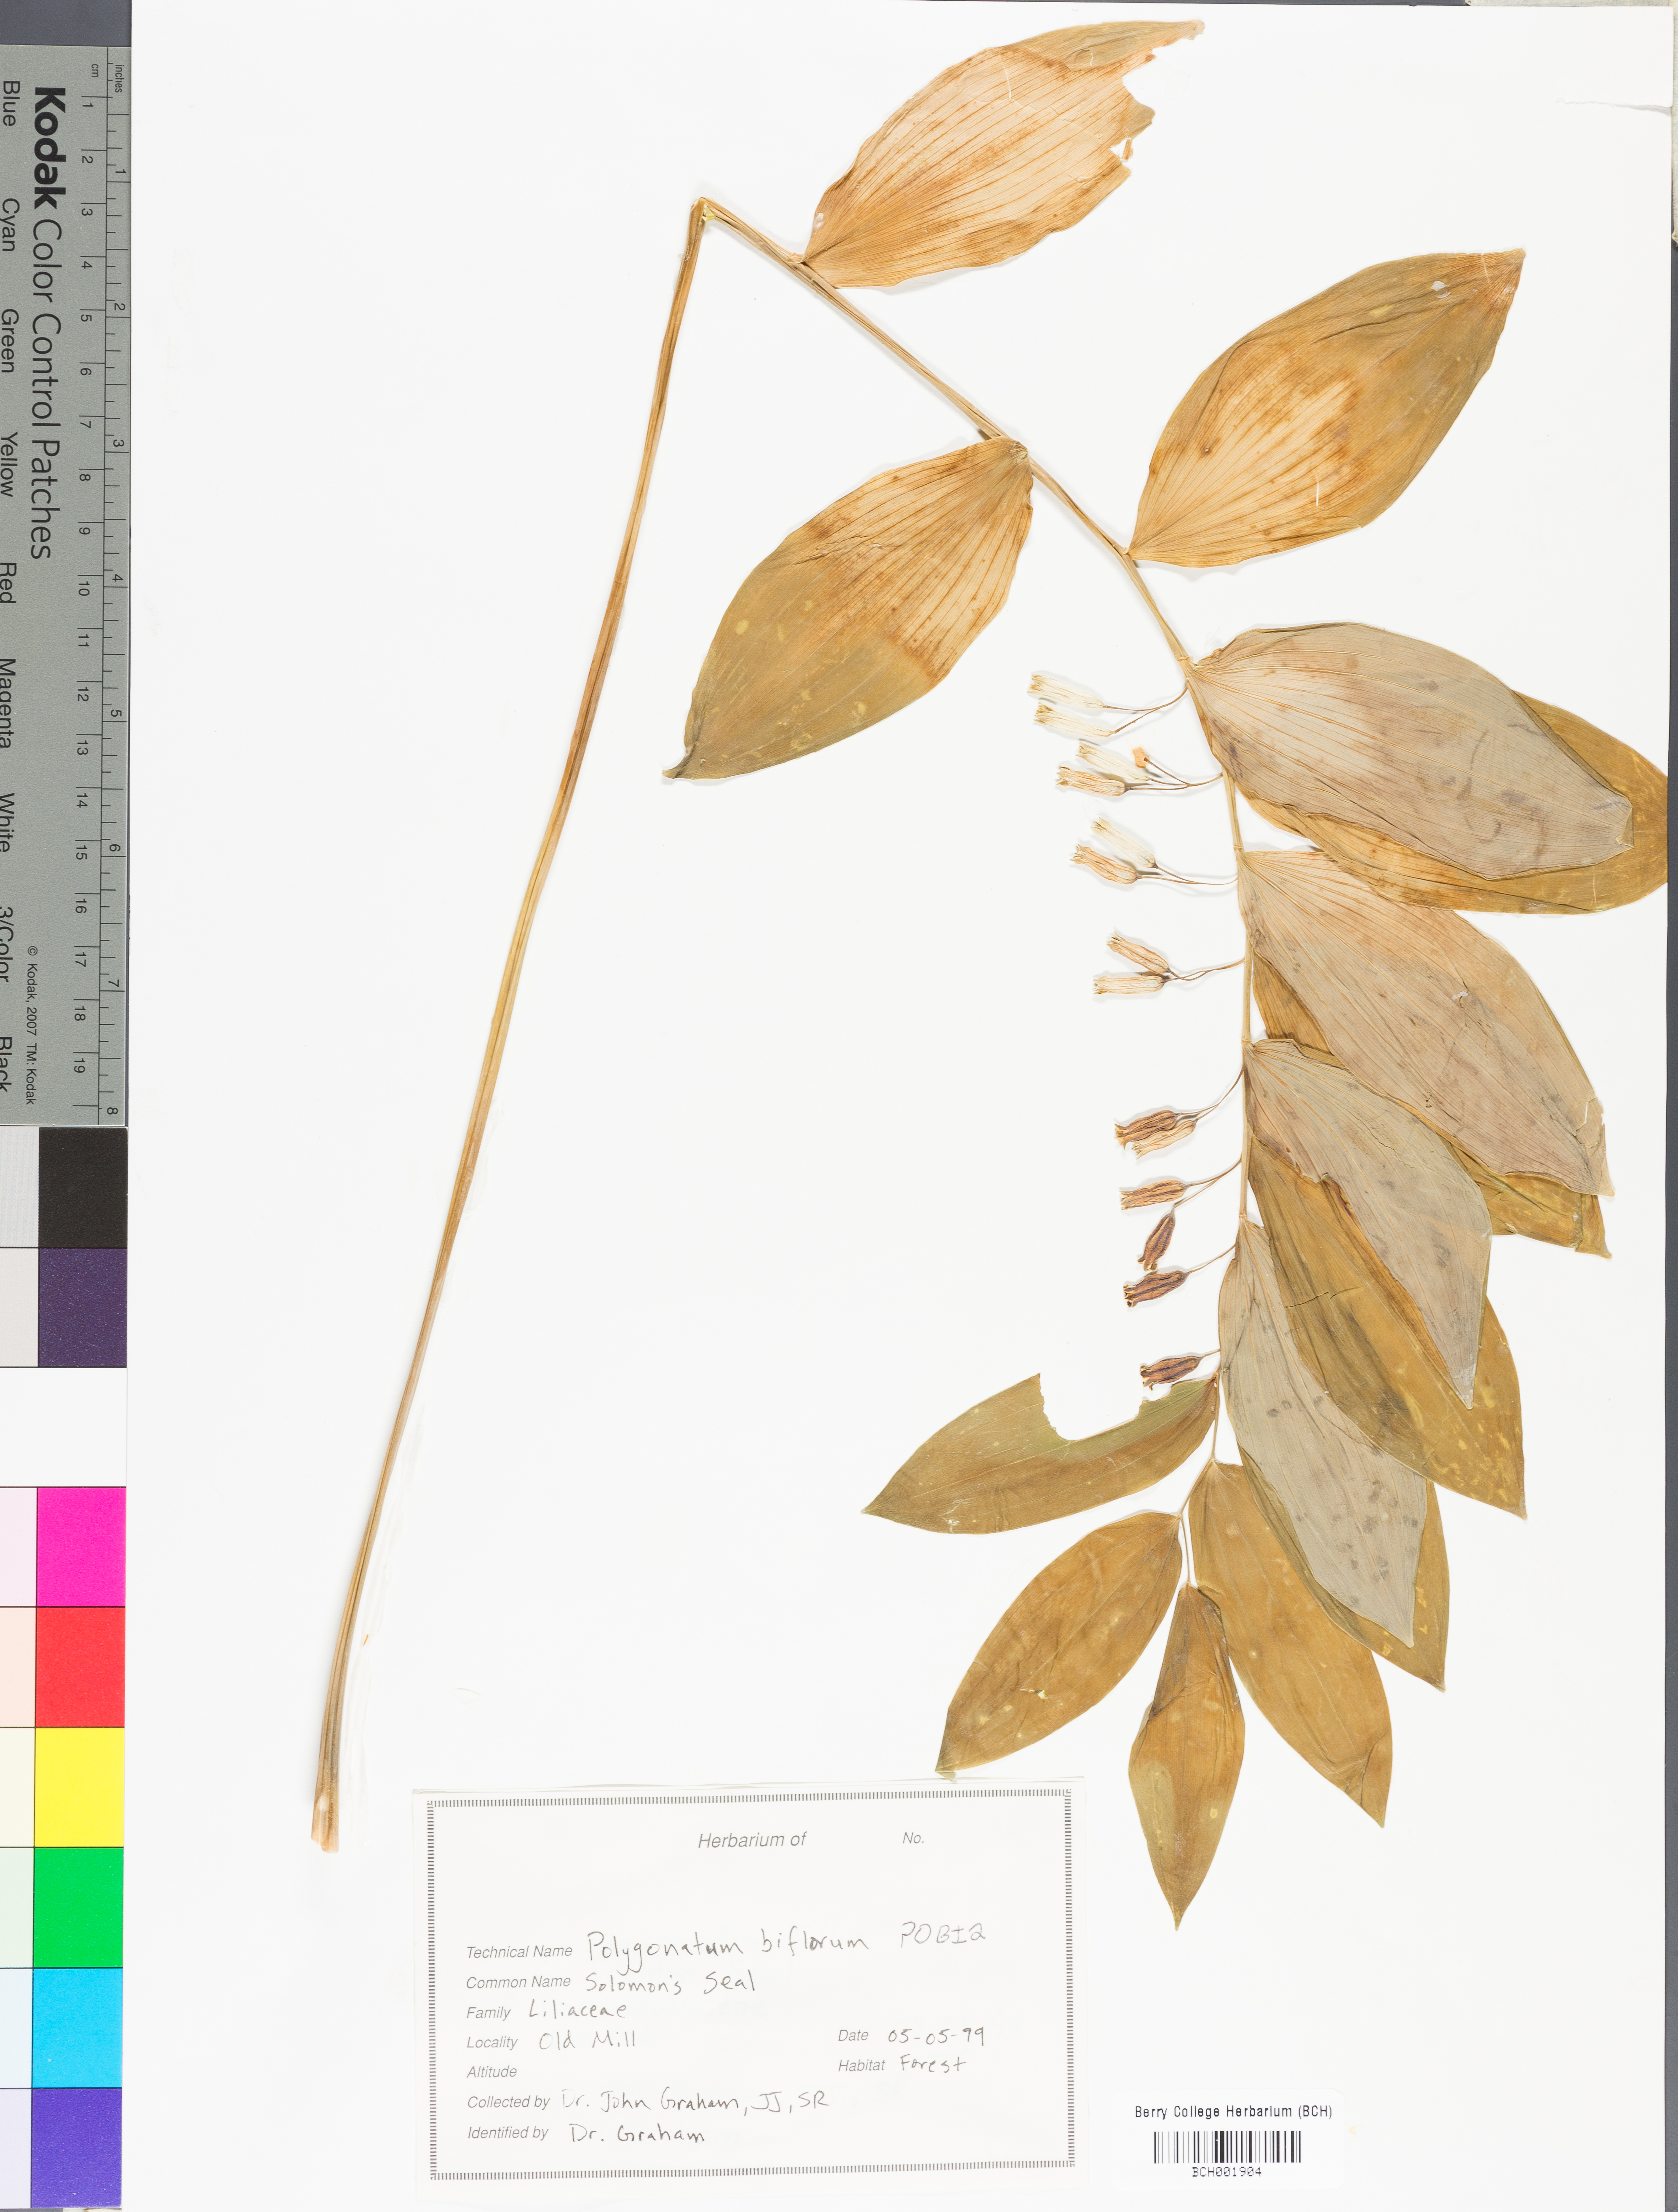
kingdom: Plantae
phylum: Tracheophyta
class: Liliopsida
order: Asparagales
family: Asparagaceae
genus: Polygonatum
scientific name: Polygonatum biflorum
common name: American solomon's-seal
